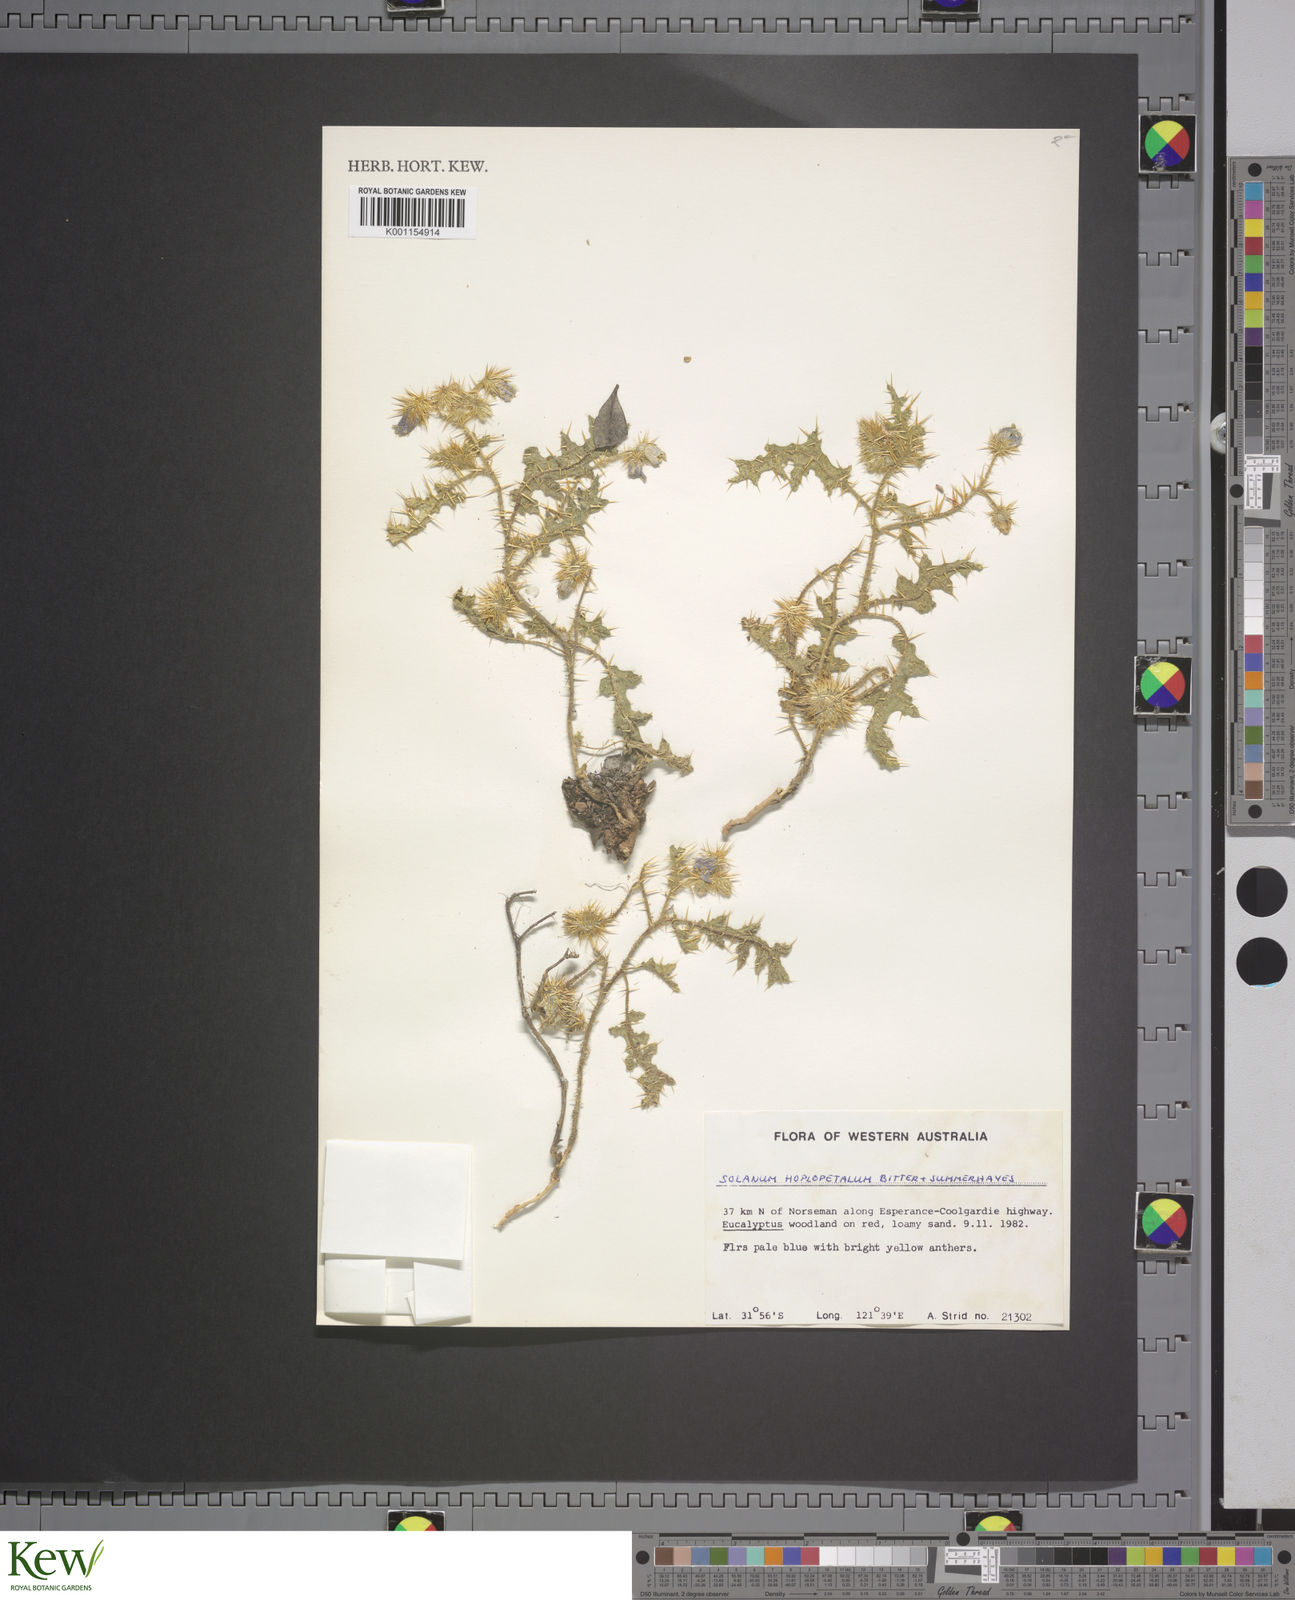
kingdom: Plantae
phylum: Tracheophyta
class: Magnoliopsida
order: Solanales
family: Solanaceae
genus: Solanum
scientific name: Solanum hoplopetalum
